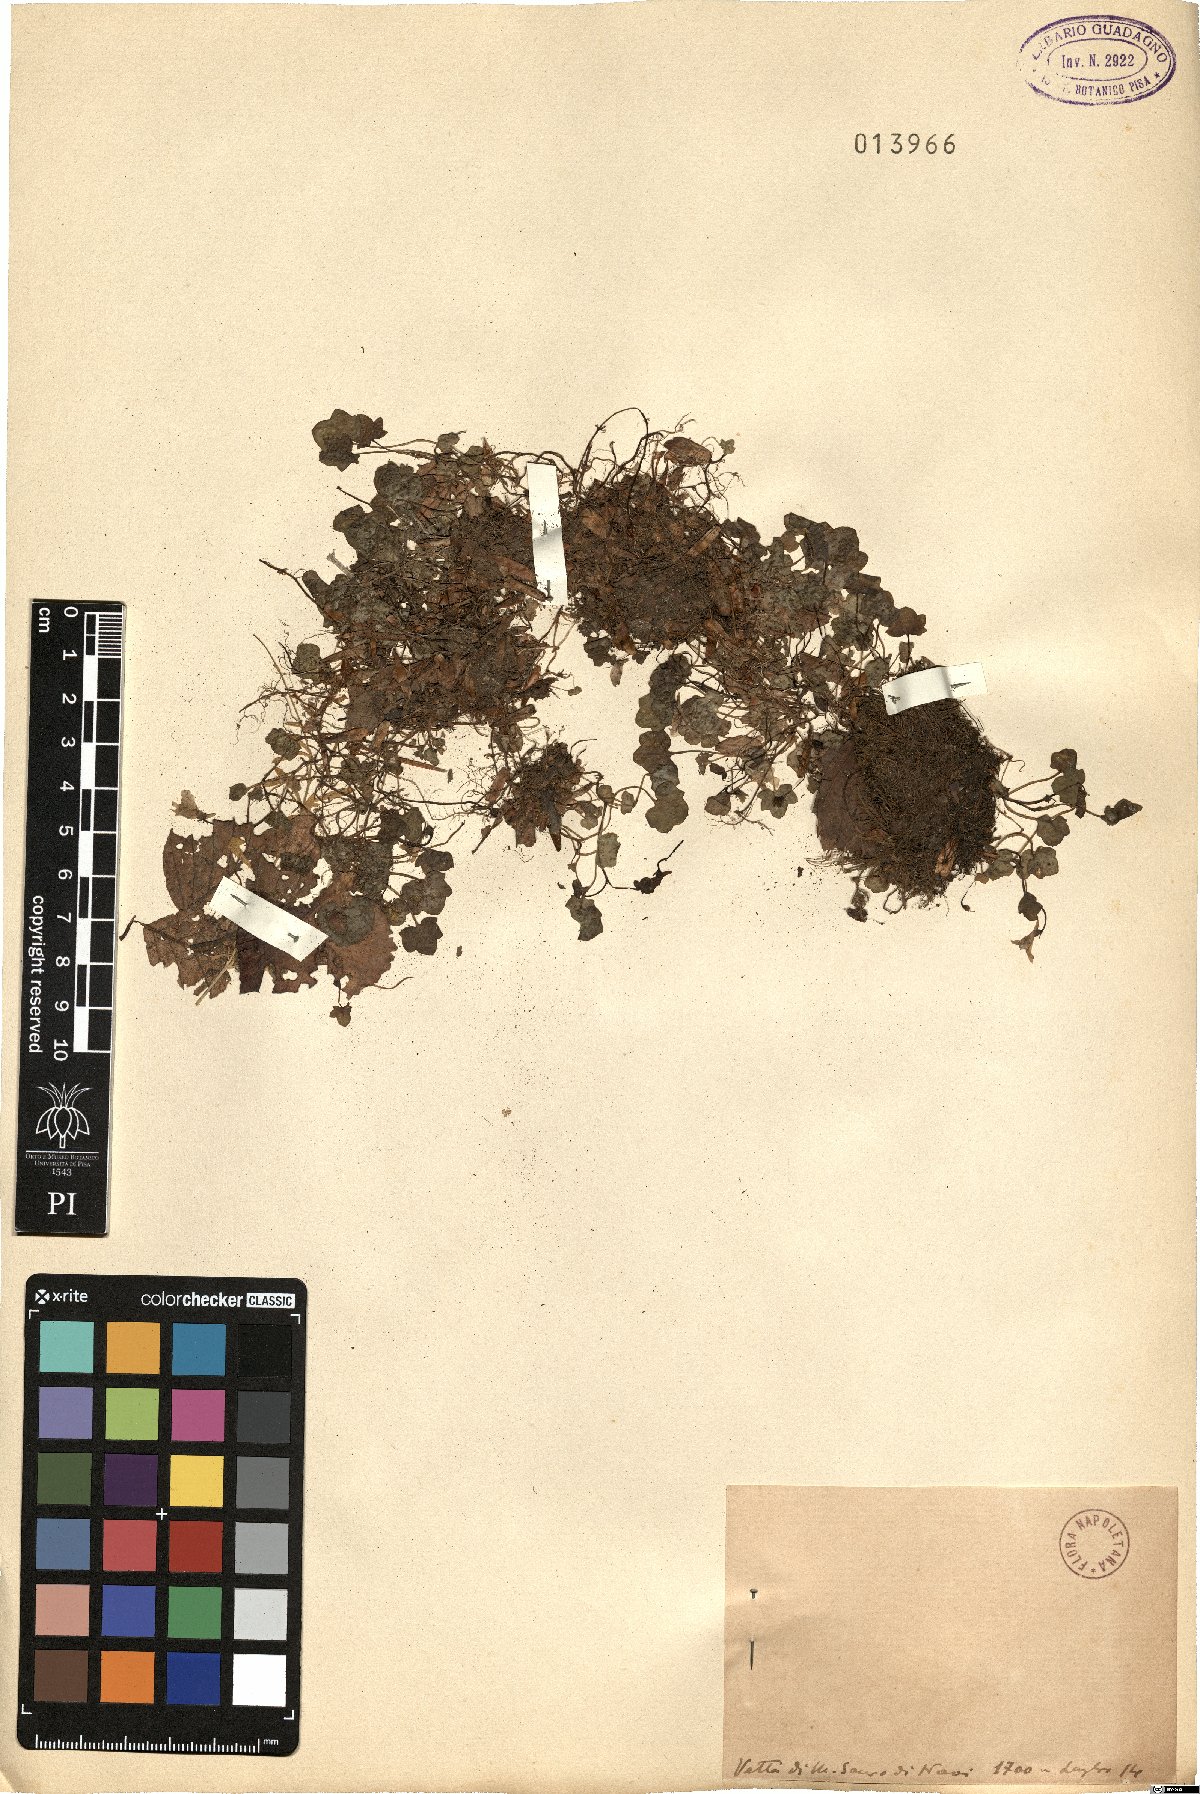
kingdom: Plantae
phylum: Tracheophyta
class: Magnoliopsida
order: Lamiales
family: Plantaginaceae
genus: Linaria
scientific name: Linaria
